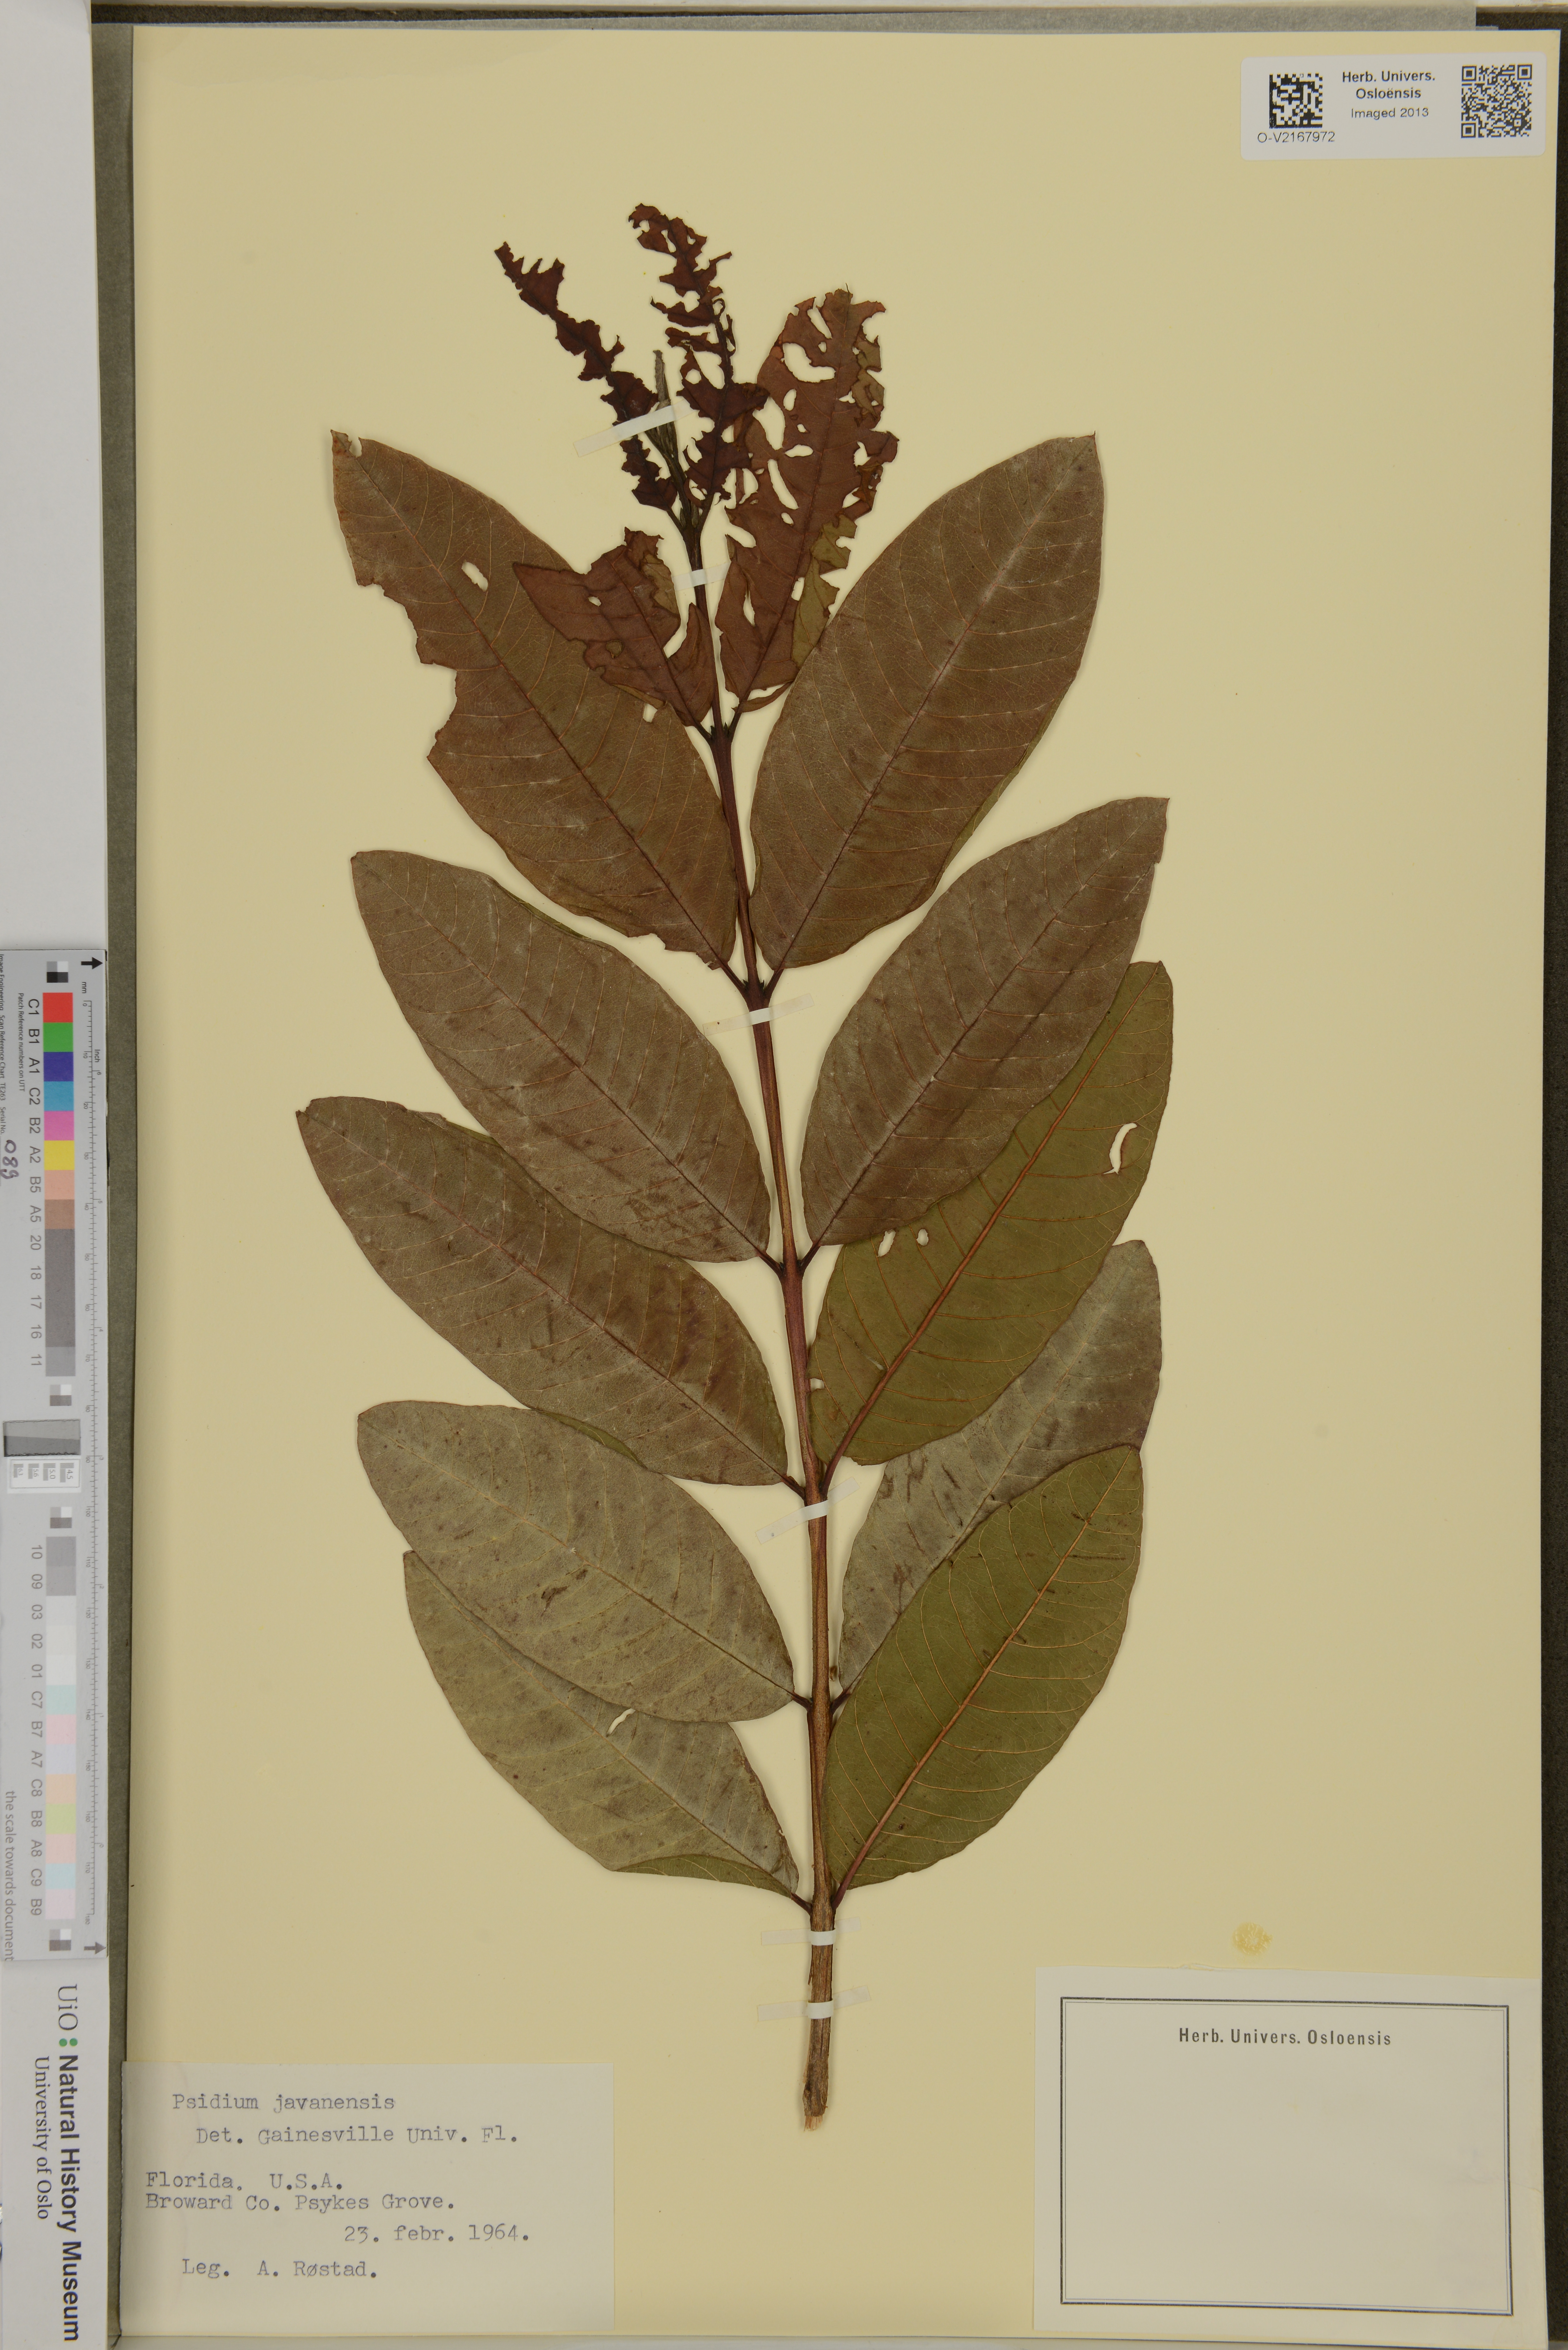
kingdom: Plantae
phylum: Tracheophyta
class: Magnoliopsida
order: Myrtales
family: Myrtaceae
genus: Psidium
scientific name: Psidium
